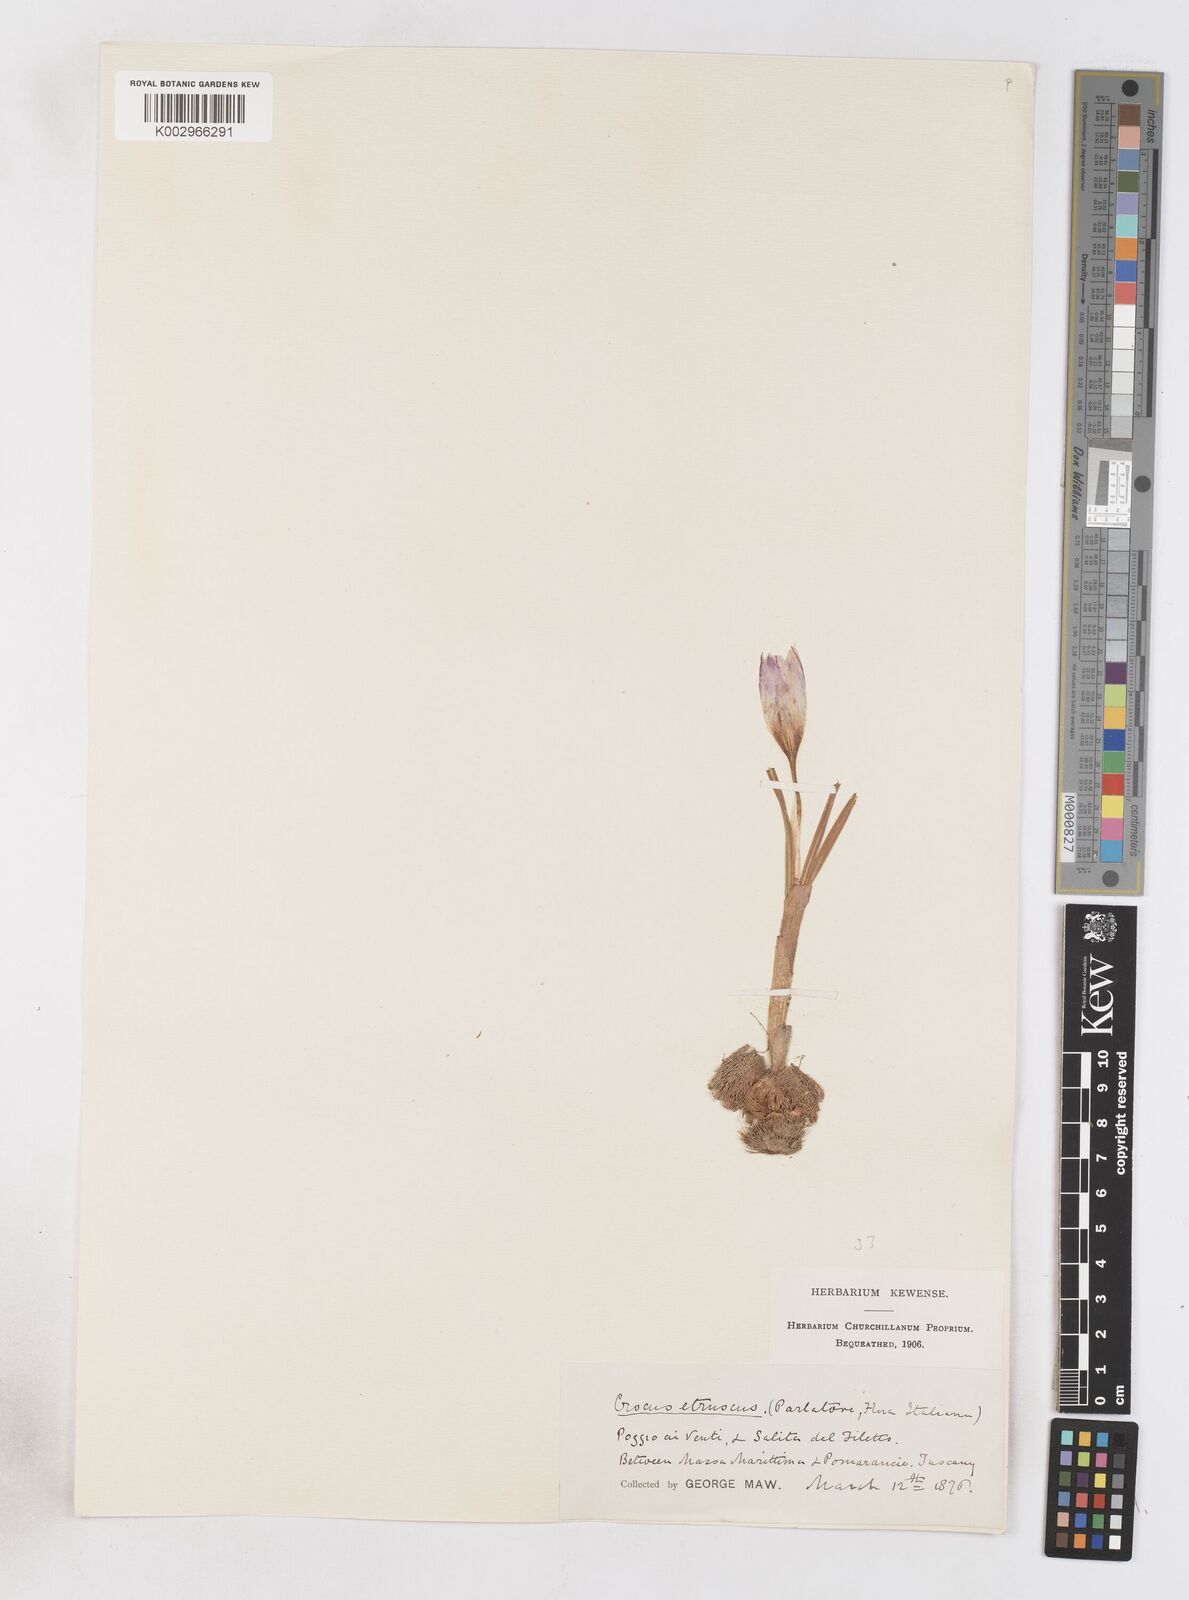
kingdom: Plantae
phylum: Tracheophyta
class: Liliopsida
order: Asparagales
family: Iridaceae
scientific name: Iridaceae
